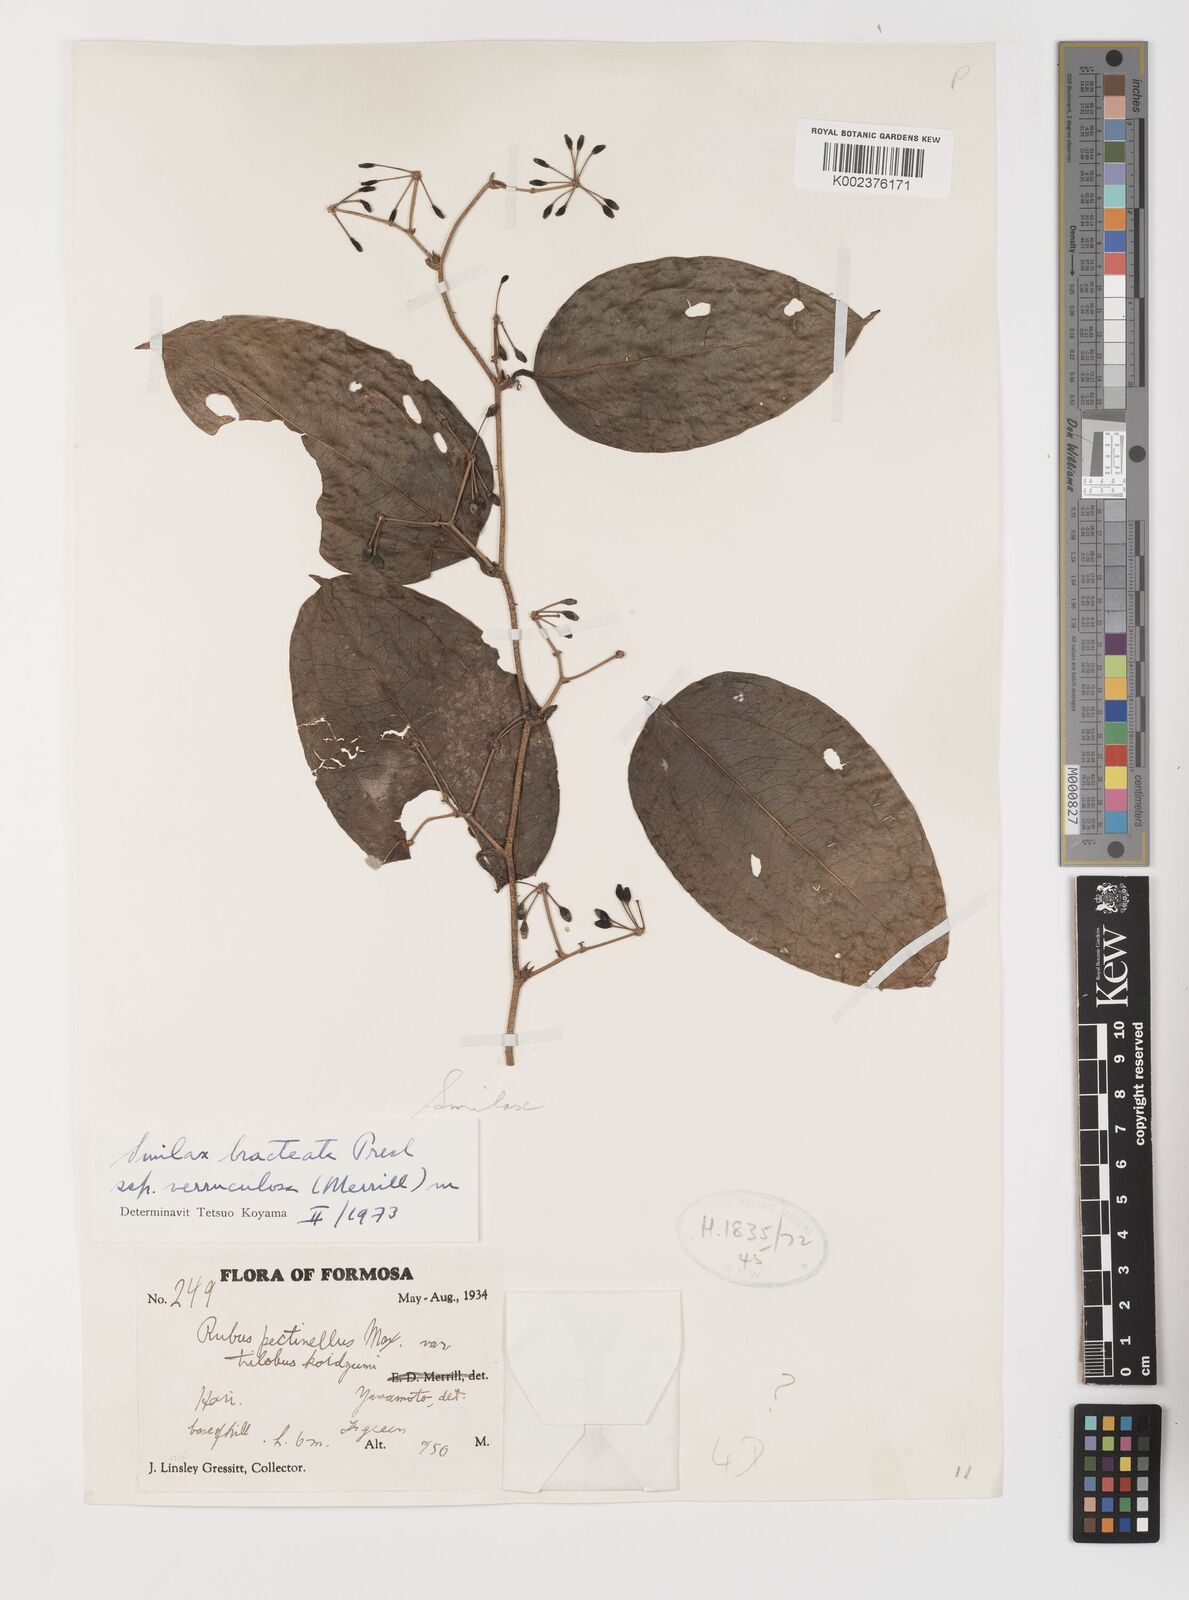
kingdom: Plantae
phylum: Tracheophyta
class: Liliopsida
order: Liliales
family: Smilacaceae
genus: Smilax
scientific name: Smilax aspericaulis
